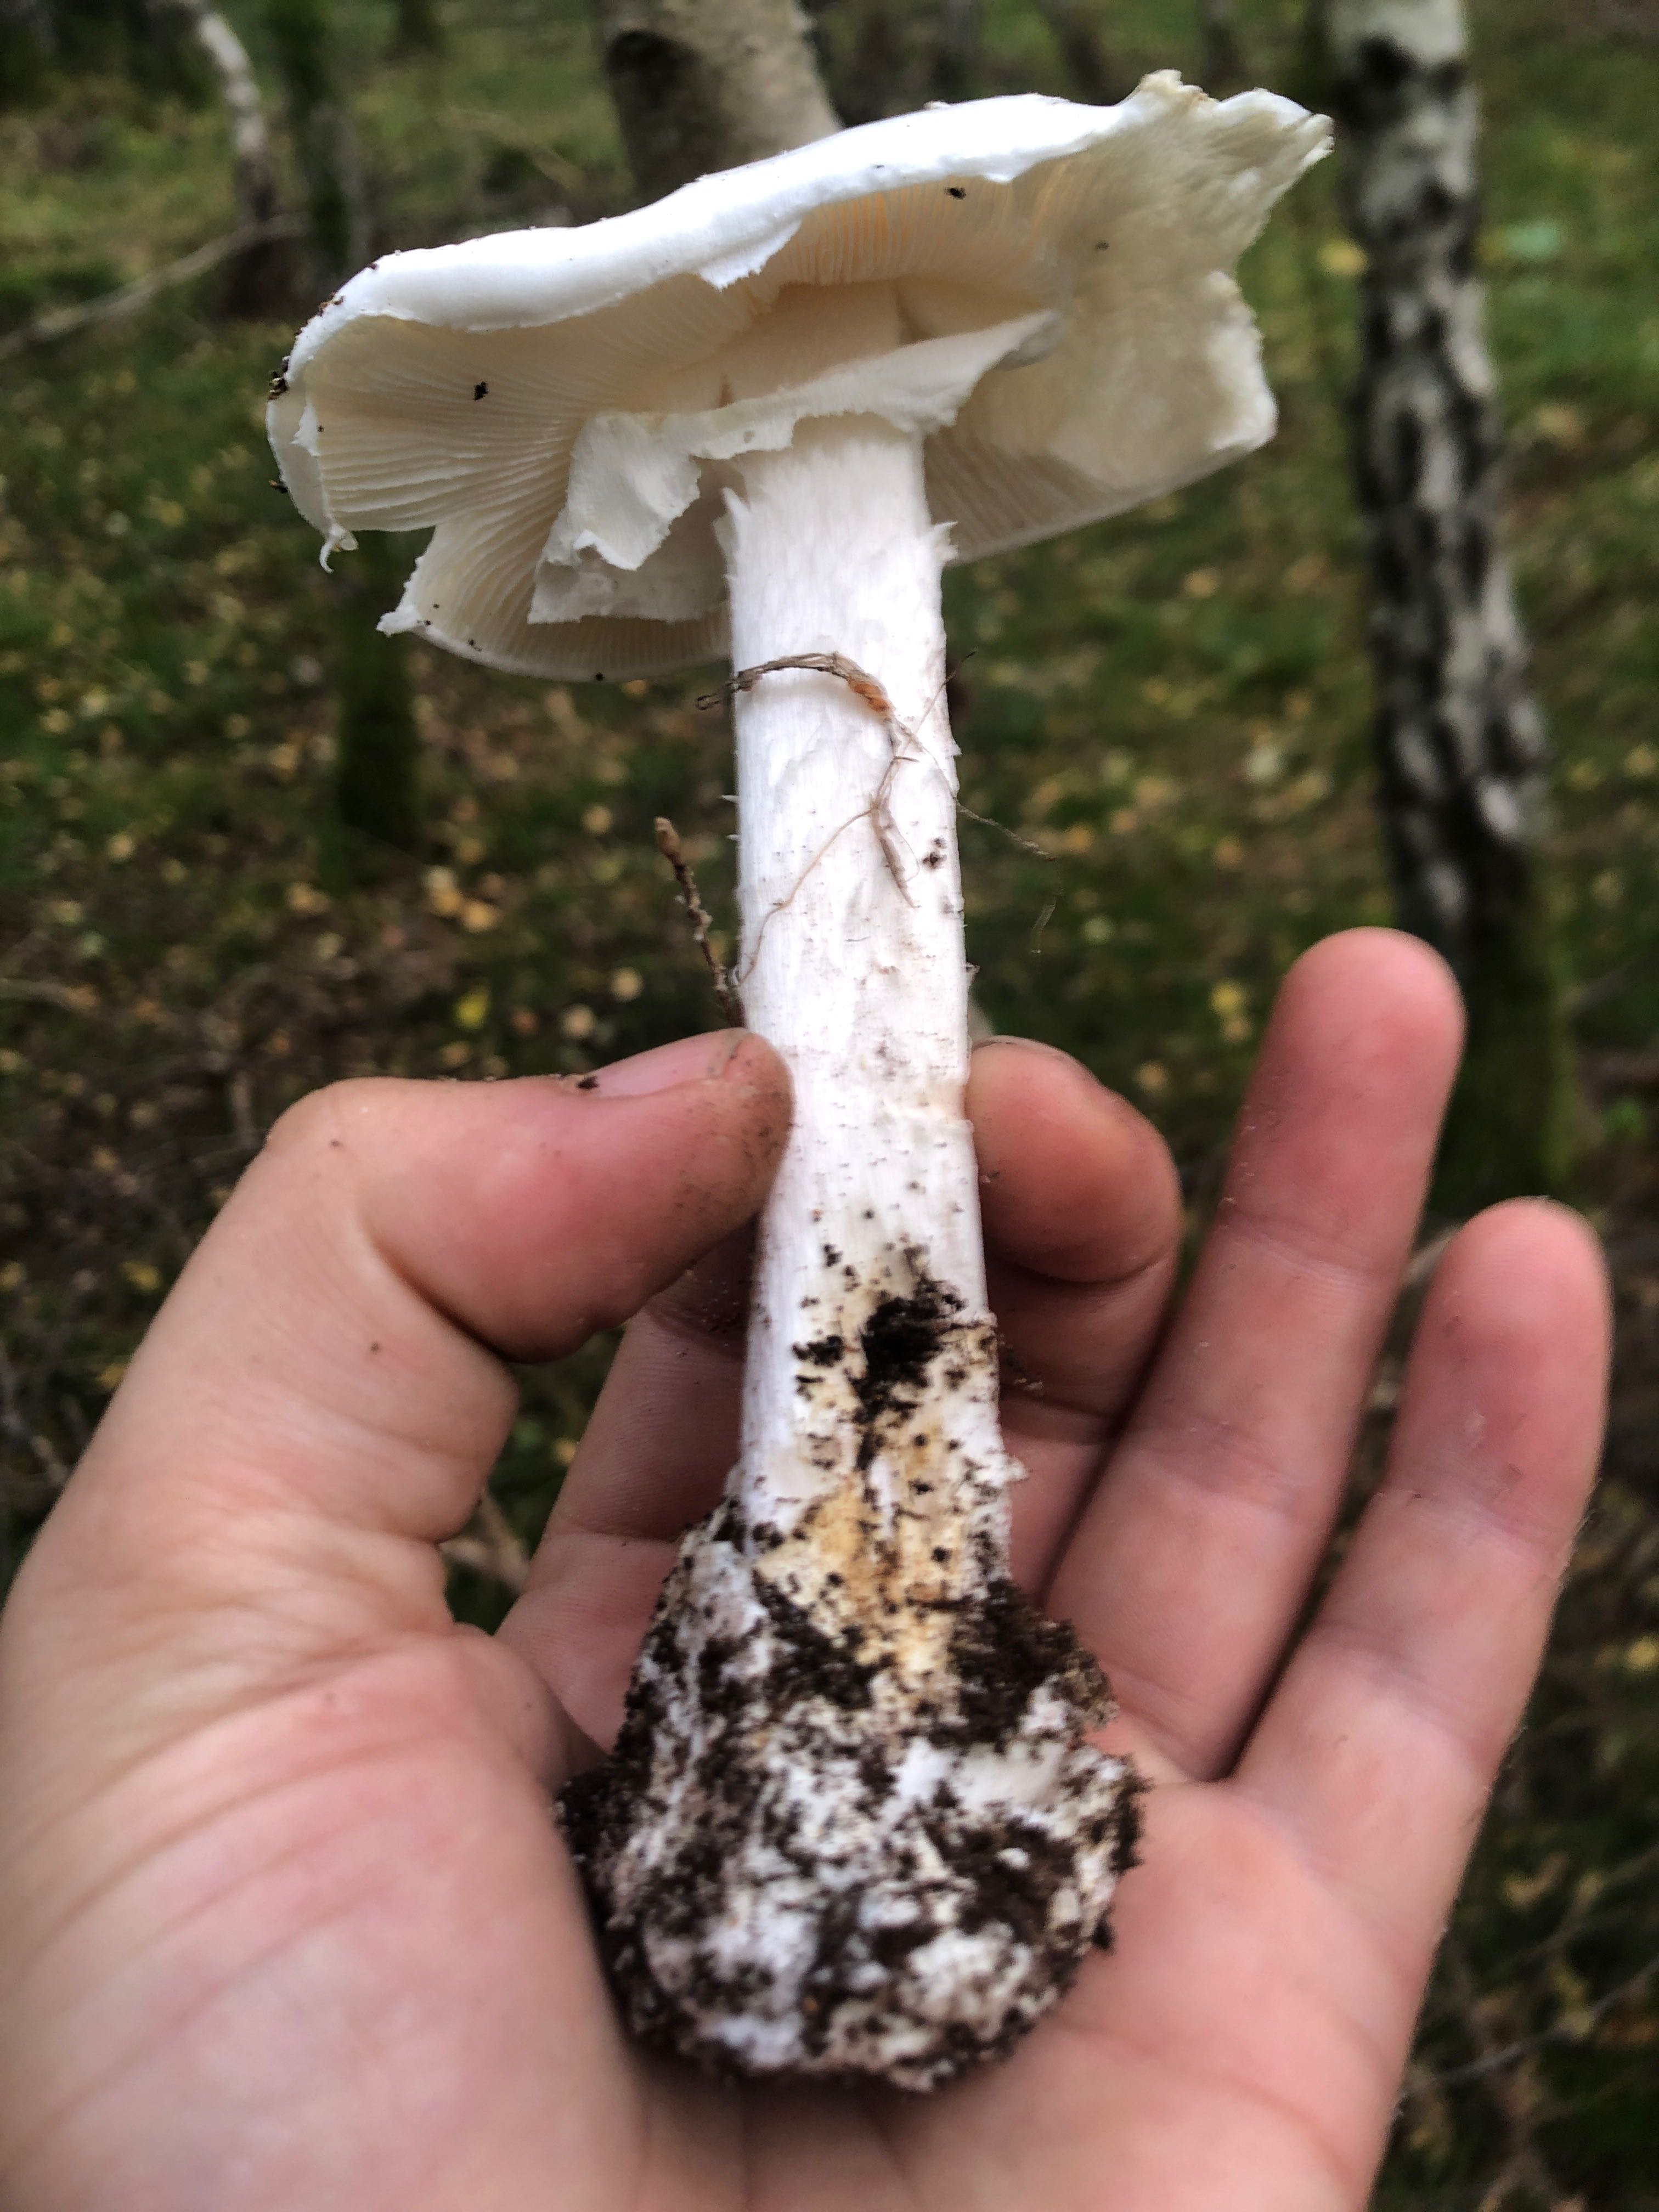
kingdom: Fungi
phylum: Basidiomycota
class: Agaricomycetes
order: Agaricales
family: Amanitaceae
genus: Amanita
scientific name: Amanita virosa
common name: snehvid fluesvamp
